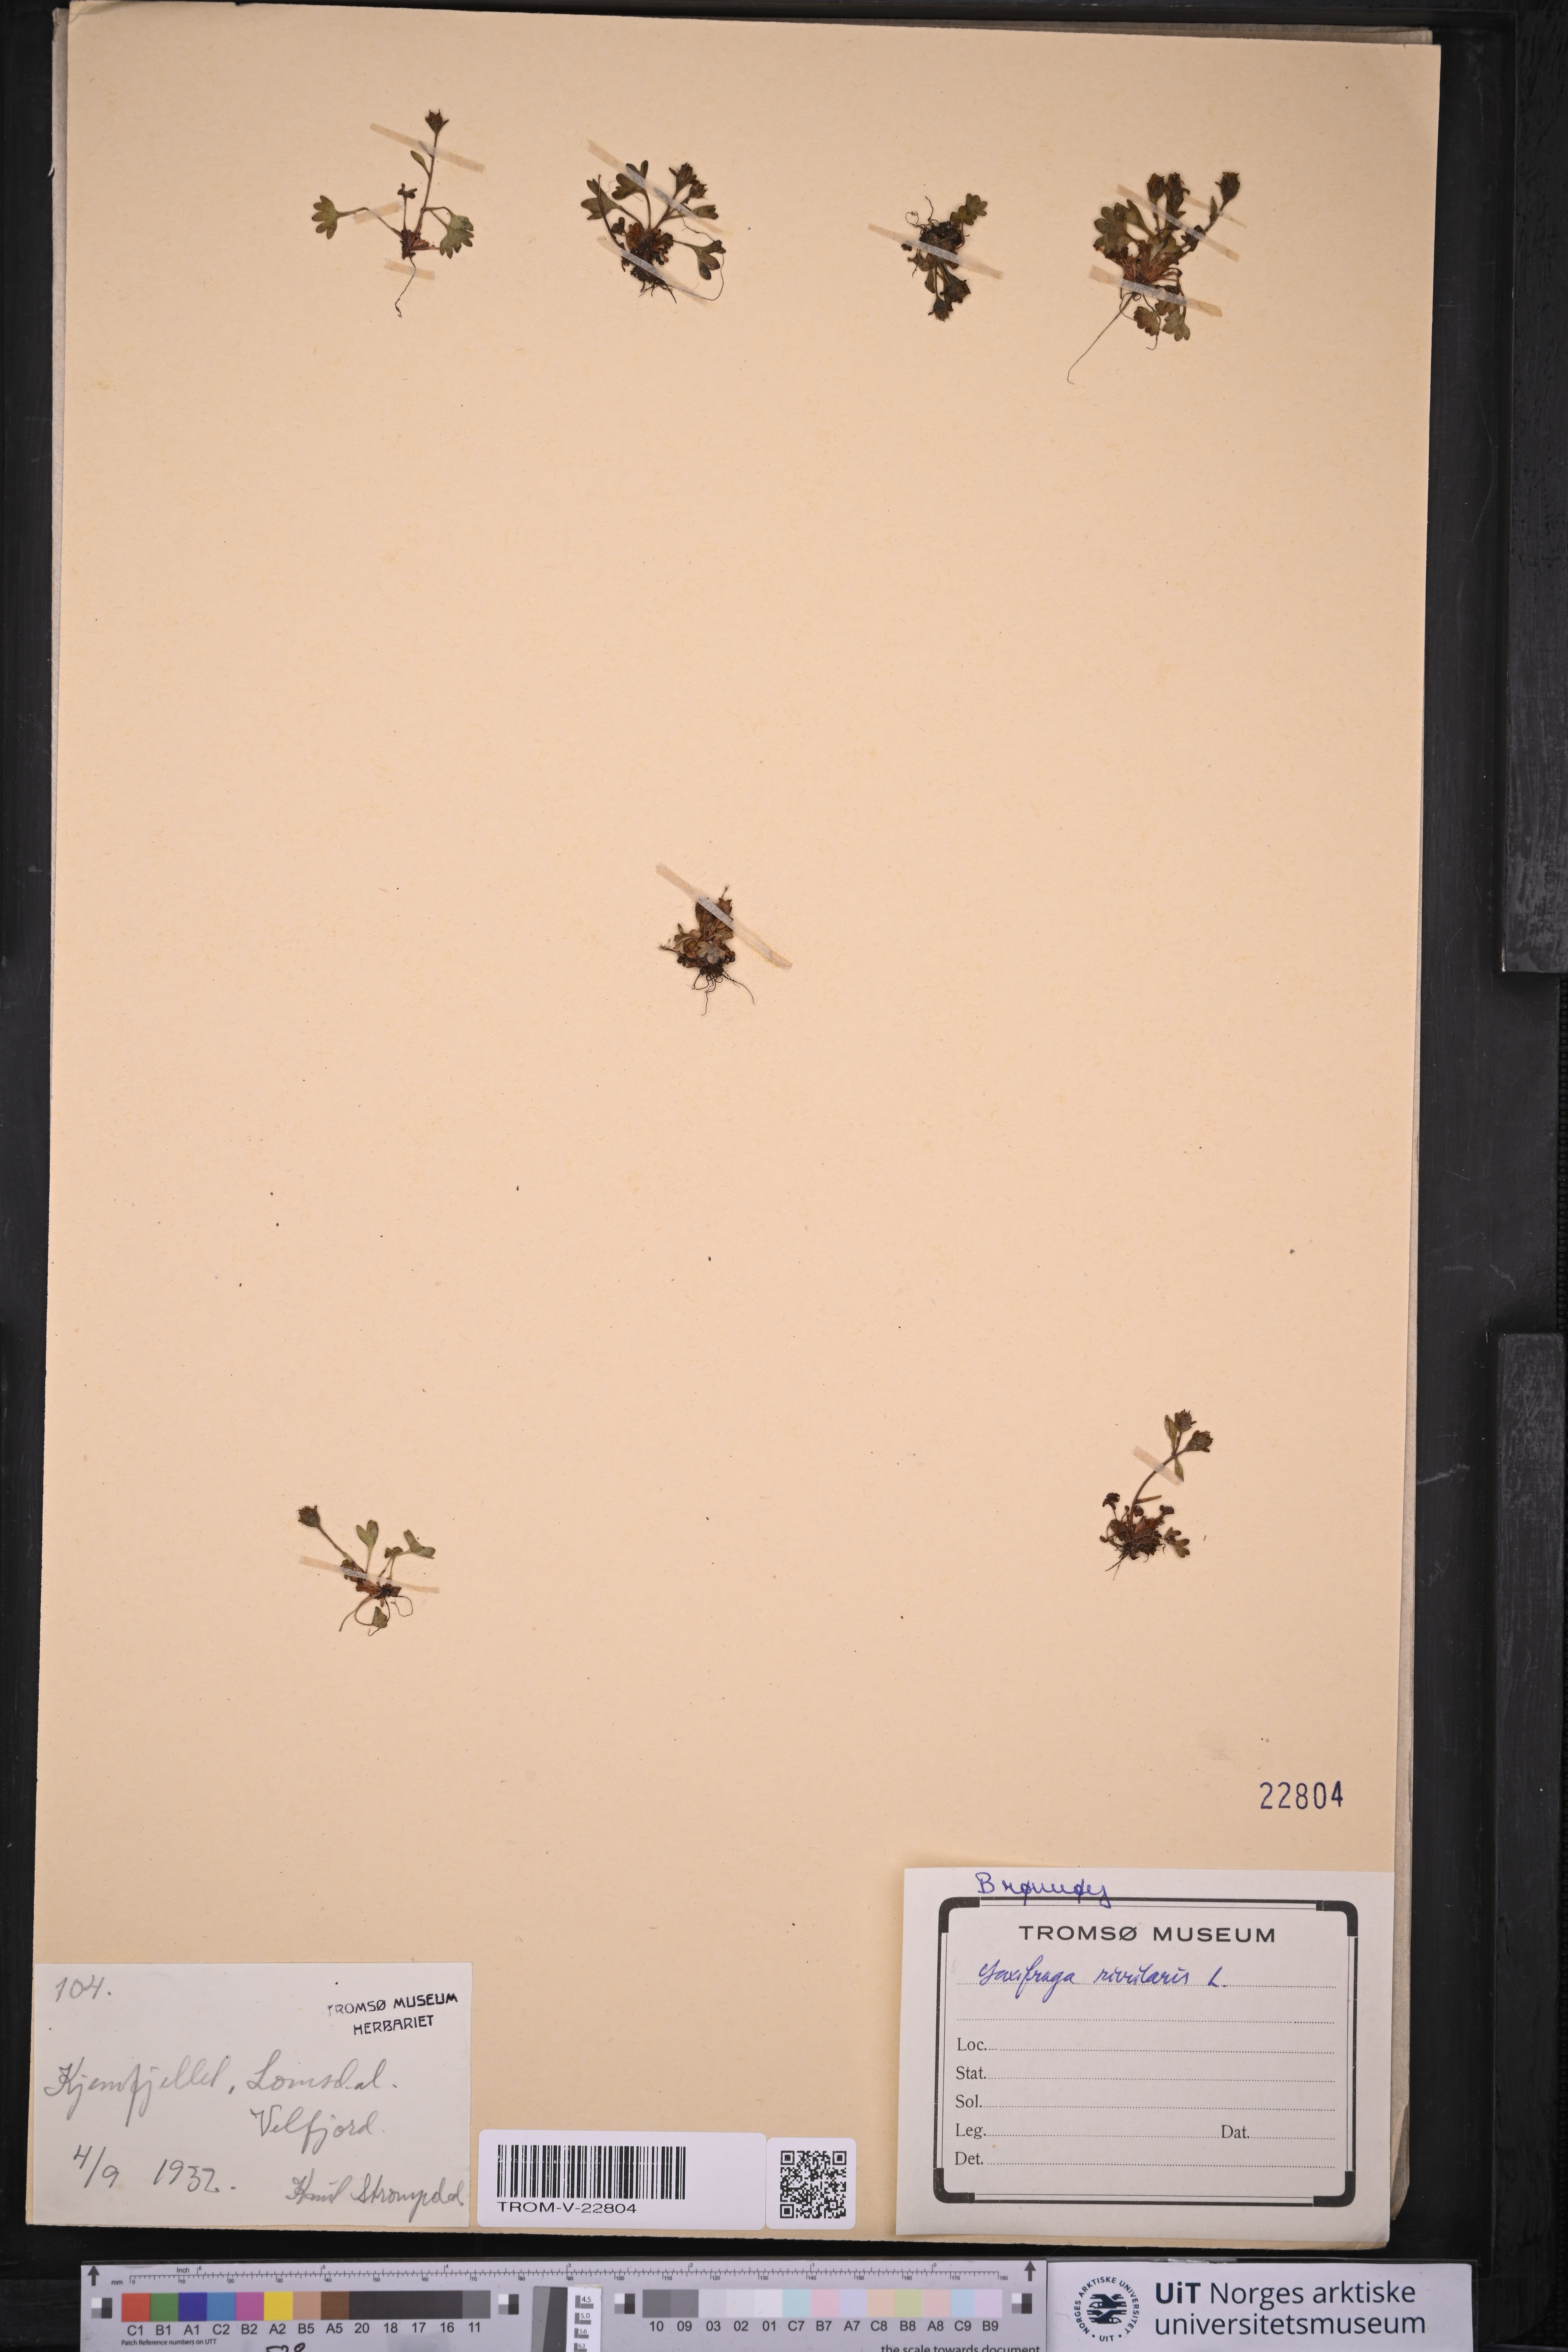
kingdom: Plantae
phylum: Tracheophyta
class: Magnoliopsida
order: Saxifragales
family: Saxifragaceae
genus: Saxifraga
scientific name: Saxifraga rivularis
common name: Highland saxifrage
